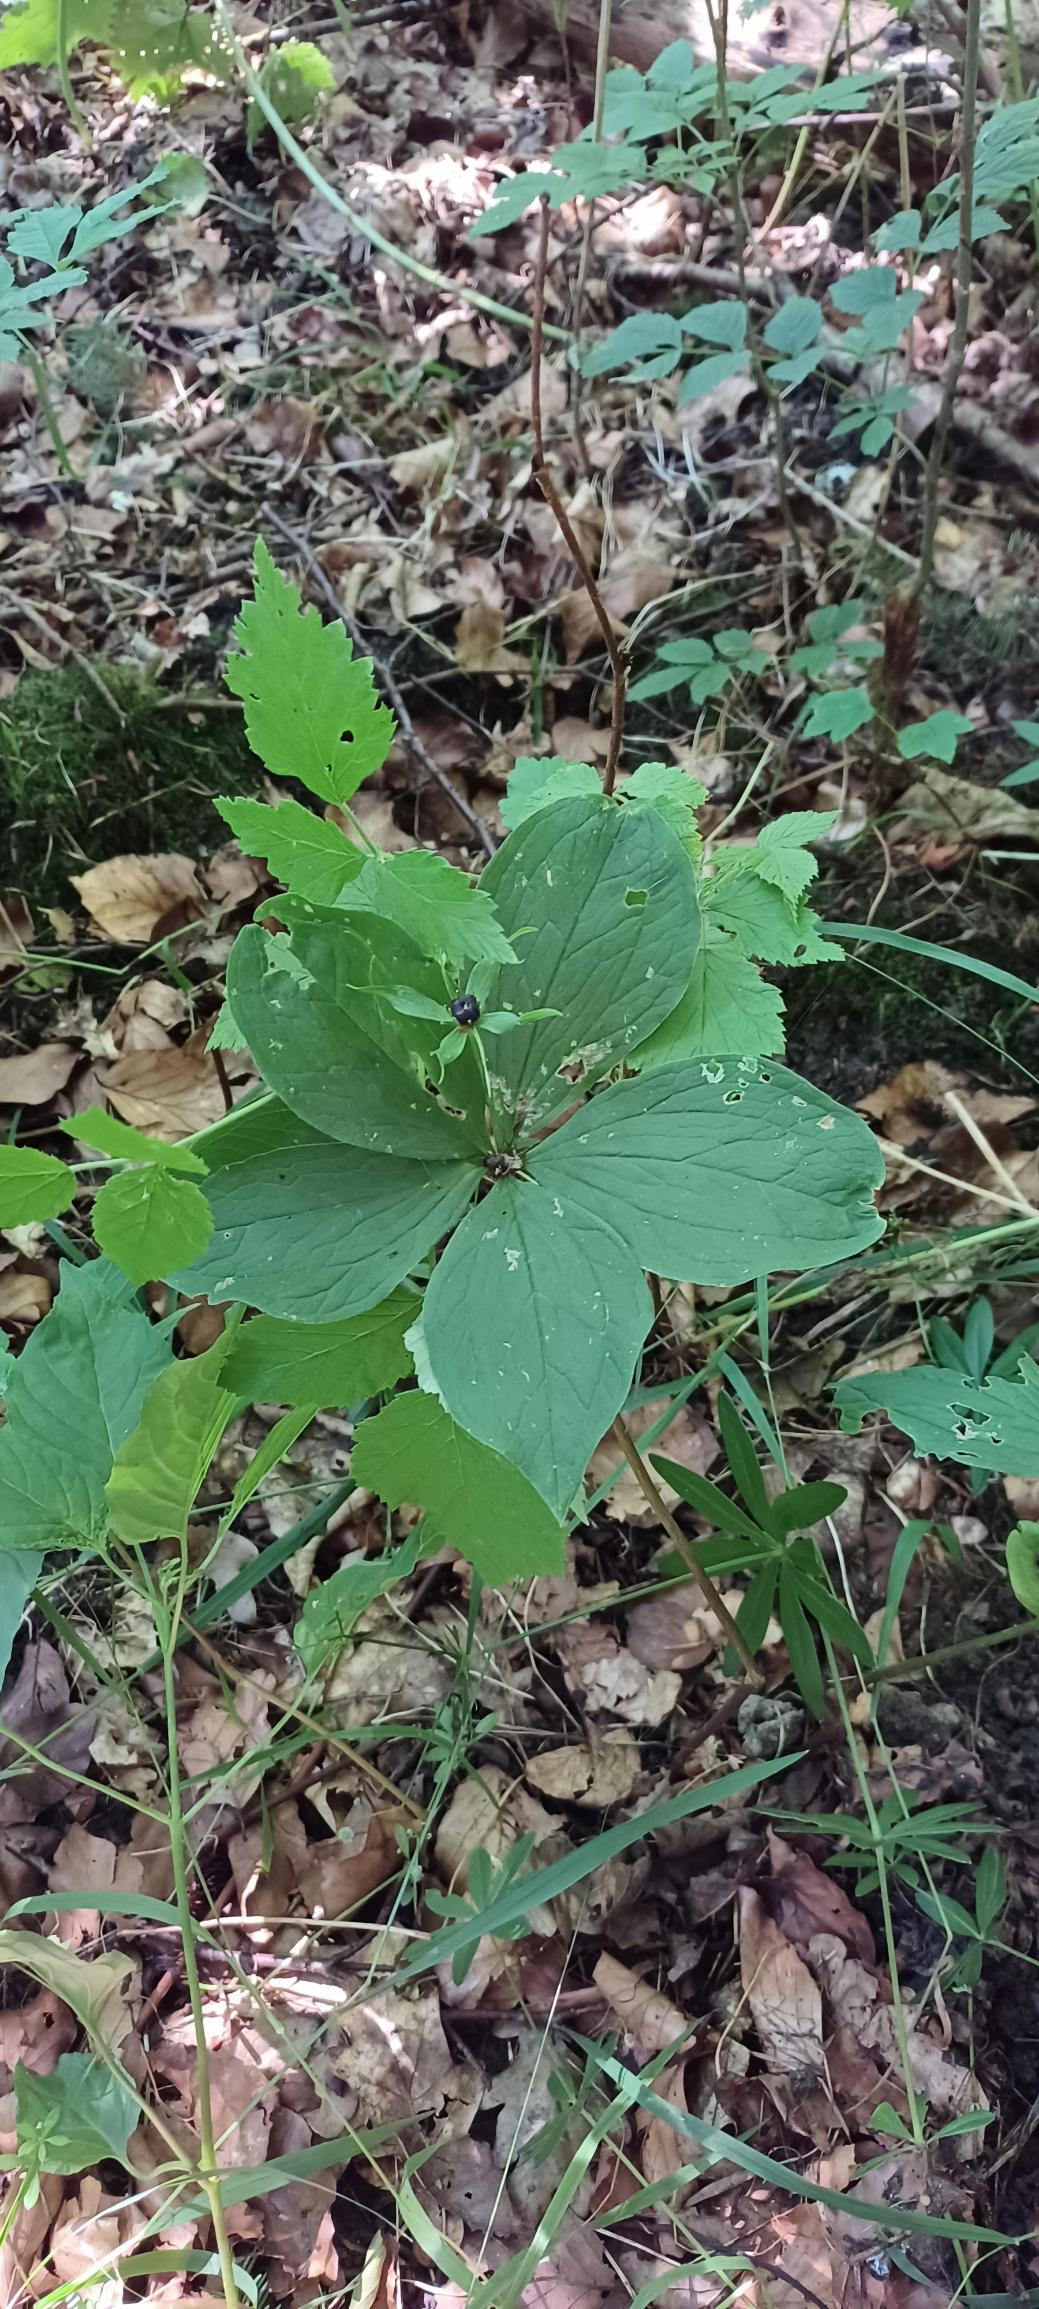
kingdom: Plantae
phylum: Tracheophyta
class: Liliopsida
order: Liliales
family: Melanthiaceae
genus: Paris
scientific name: Paris quadrifolia
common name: Firblad
